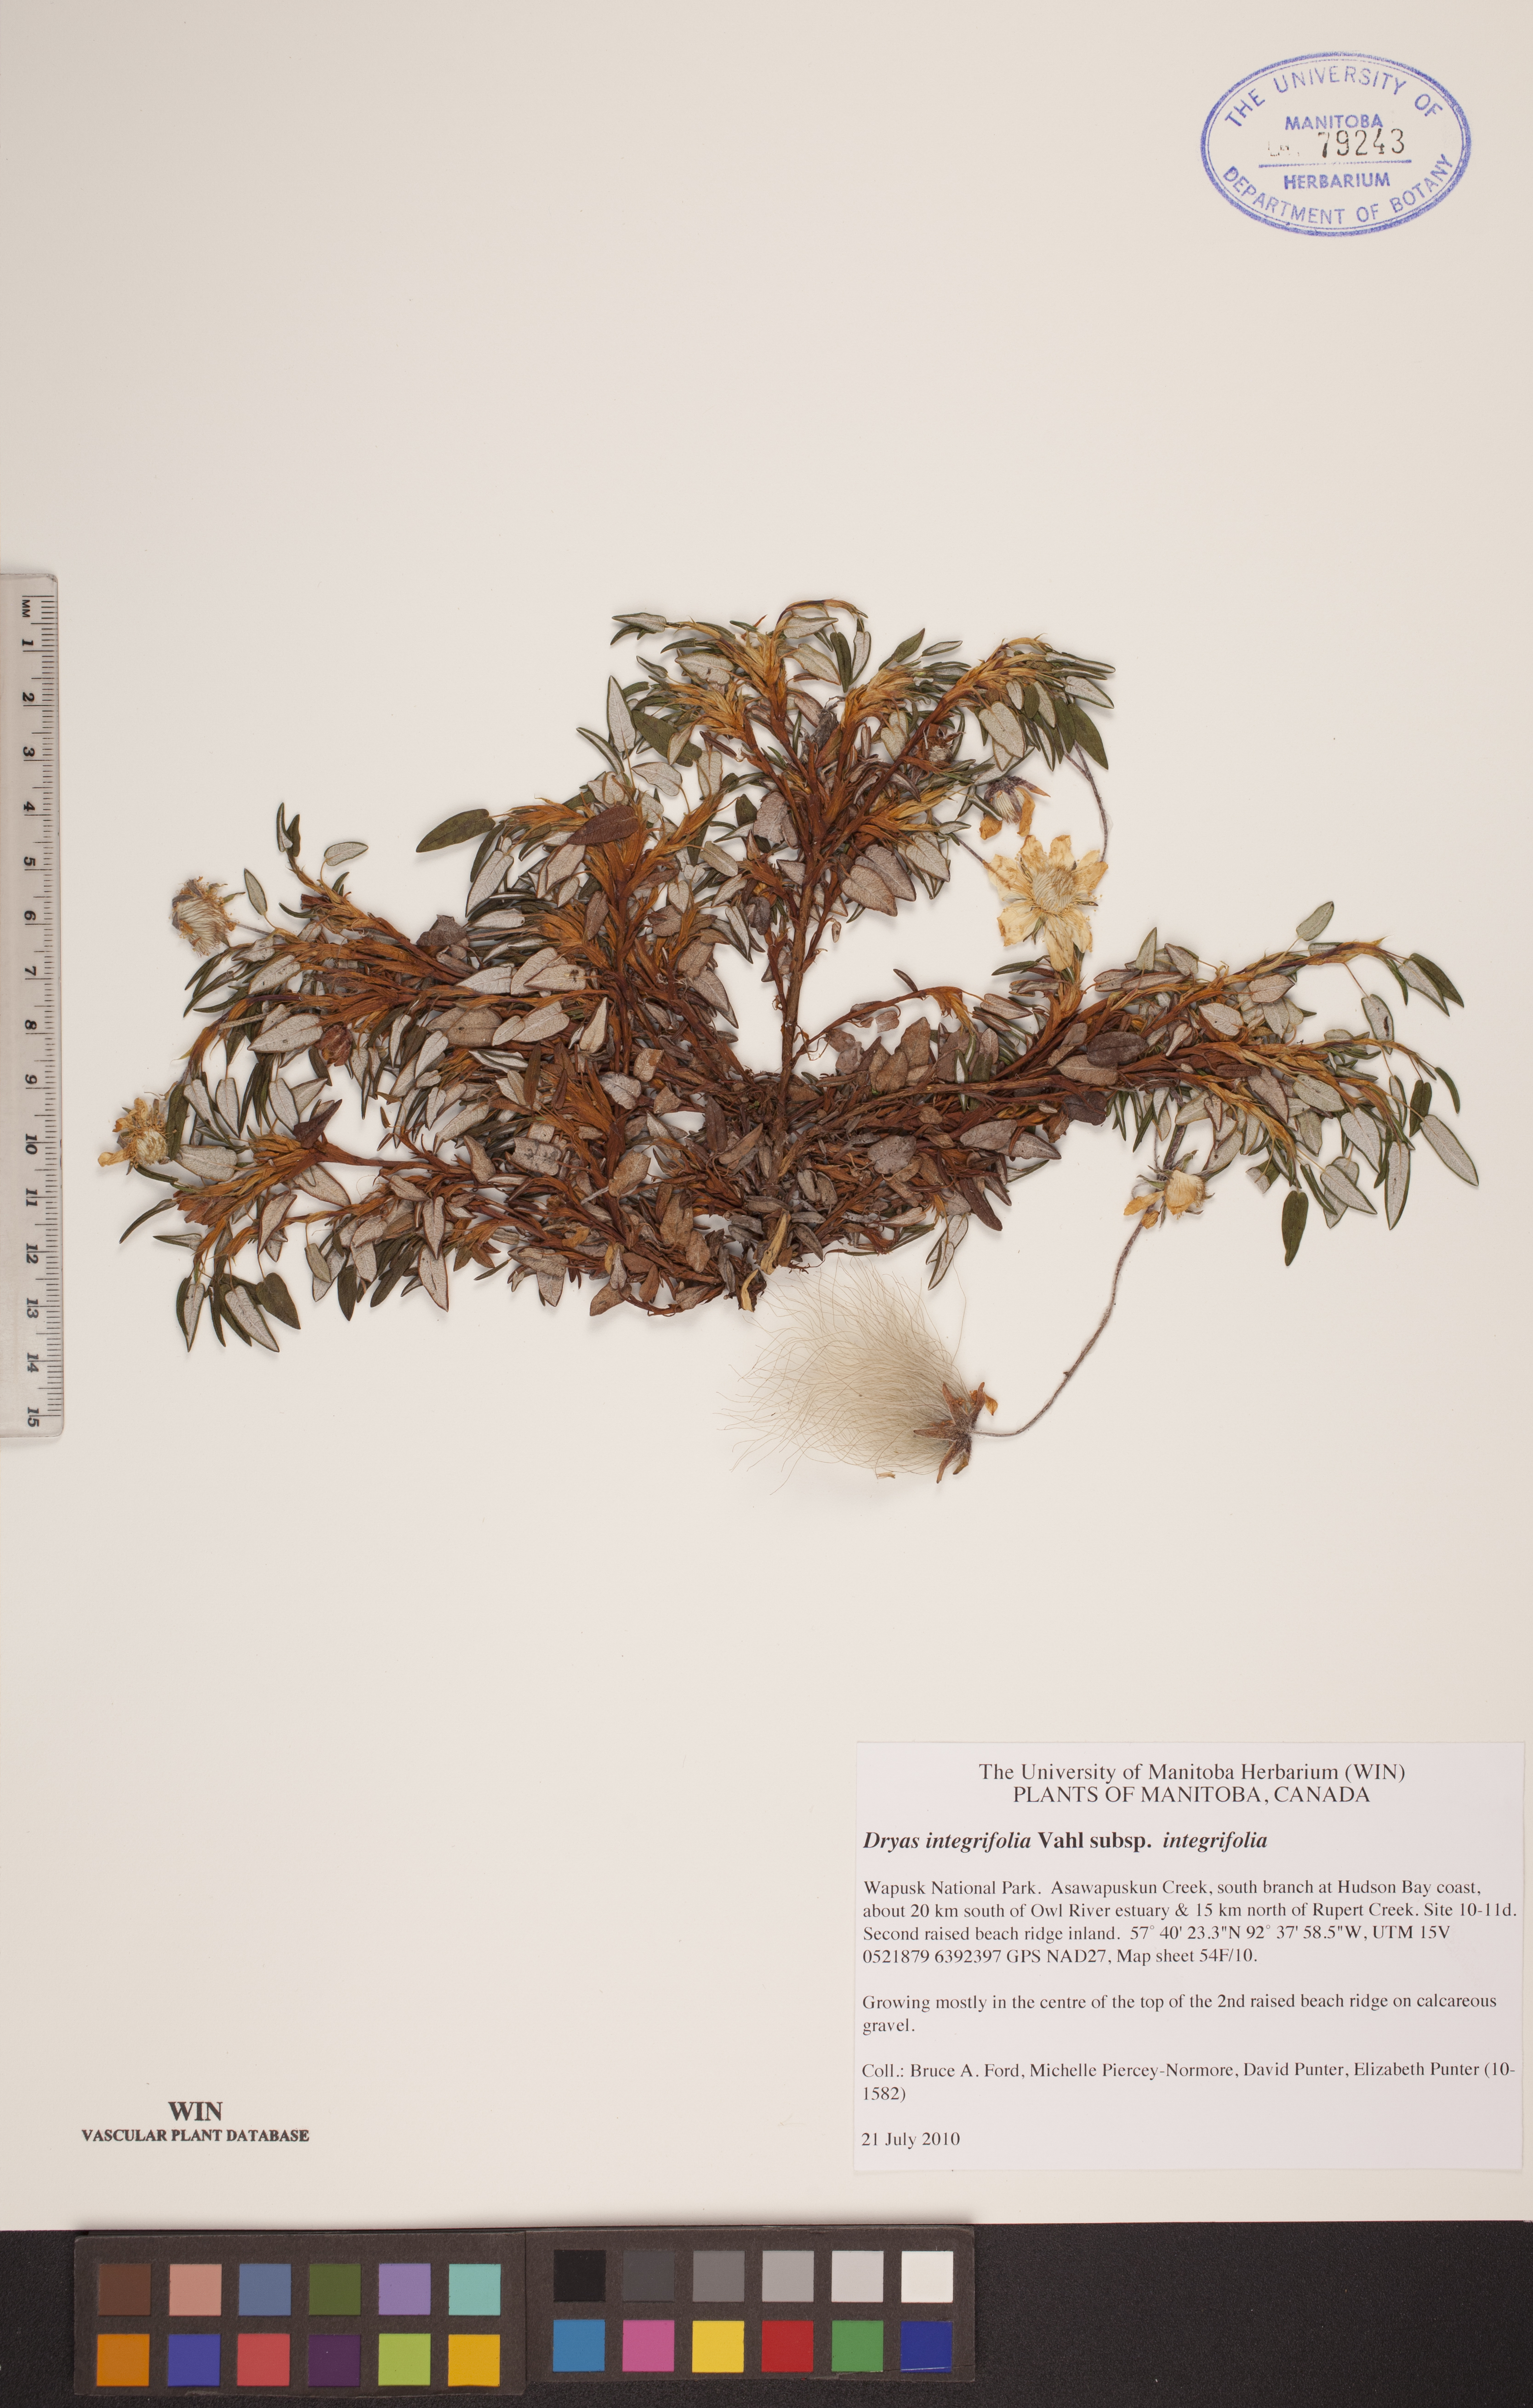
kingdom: Plantae
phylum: Tracheophyta
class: Magnoliopsida
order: Rosales
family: Rosaceae
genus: Dryas
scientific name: Dryas integrifolia
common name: Entire-leaved mountain avens
